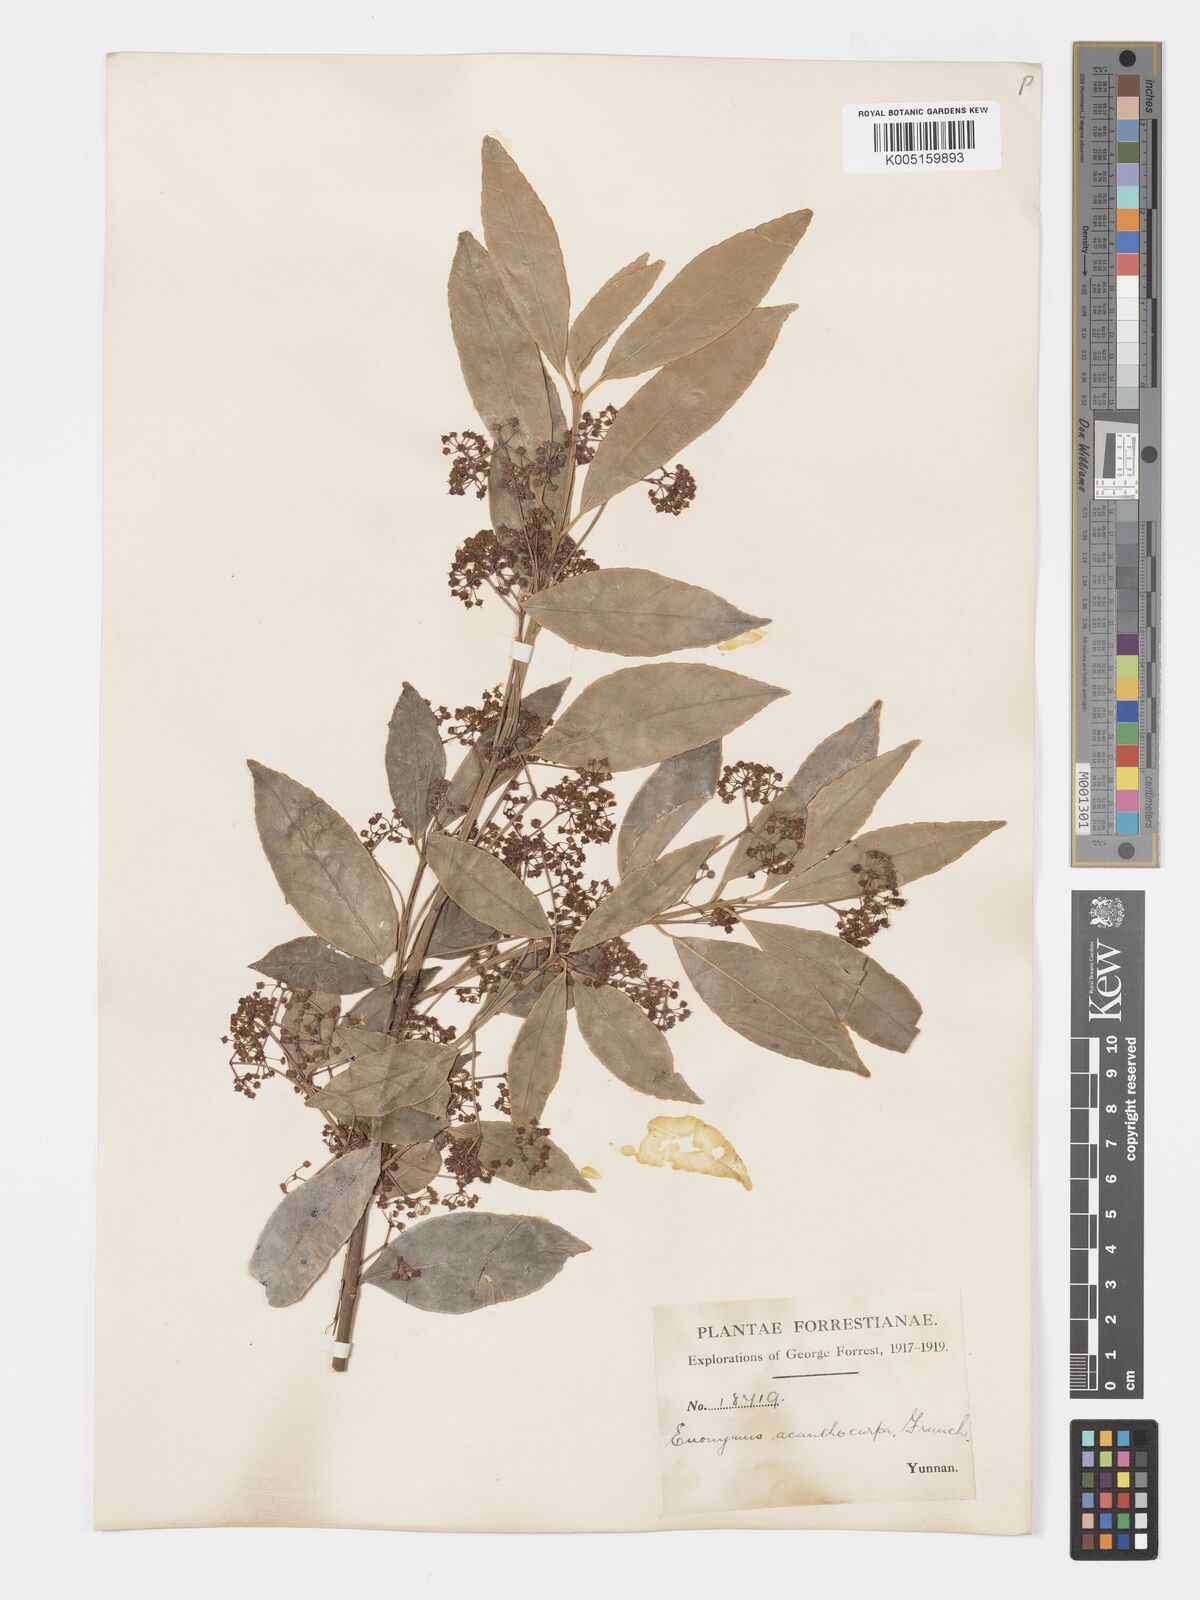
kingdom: Plantae
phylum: Tracheophyta
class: Magnoliopsida
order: Celastrales
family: Celastraceae
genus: Euonymus
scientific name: Euonymus acanthocarpus
